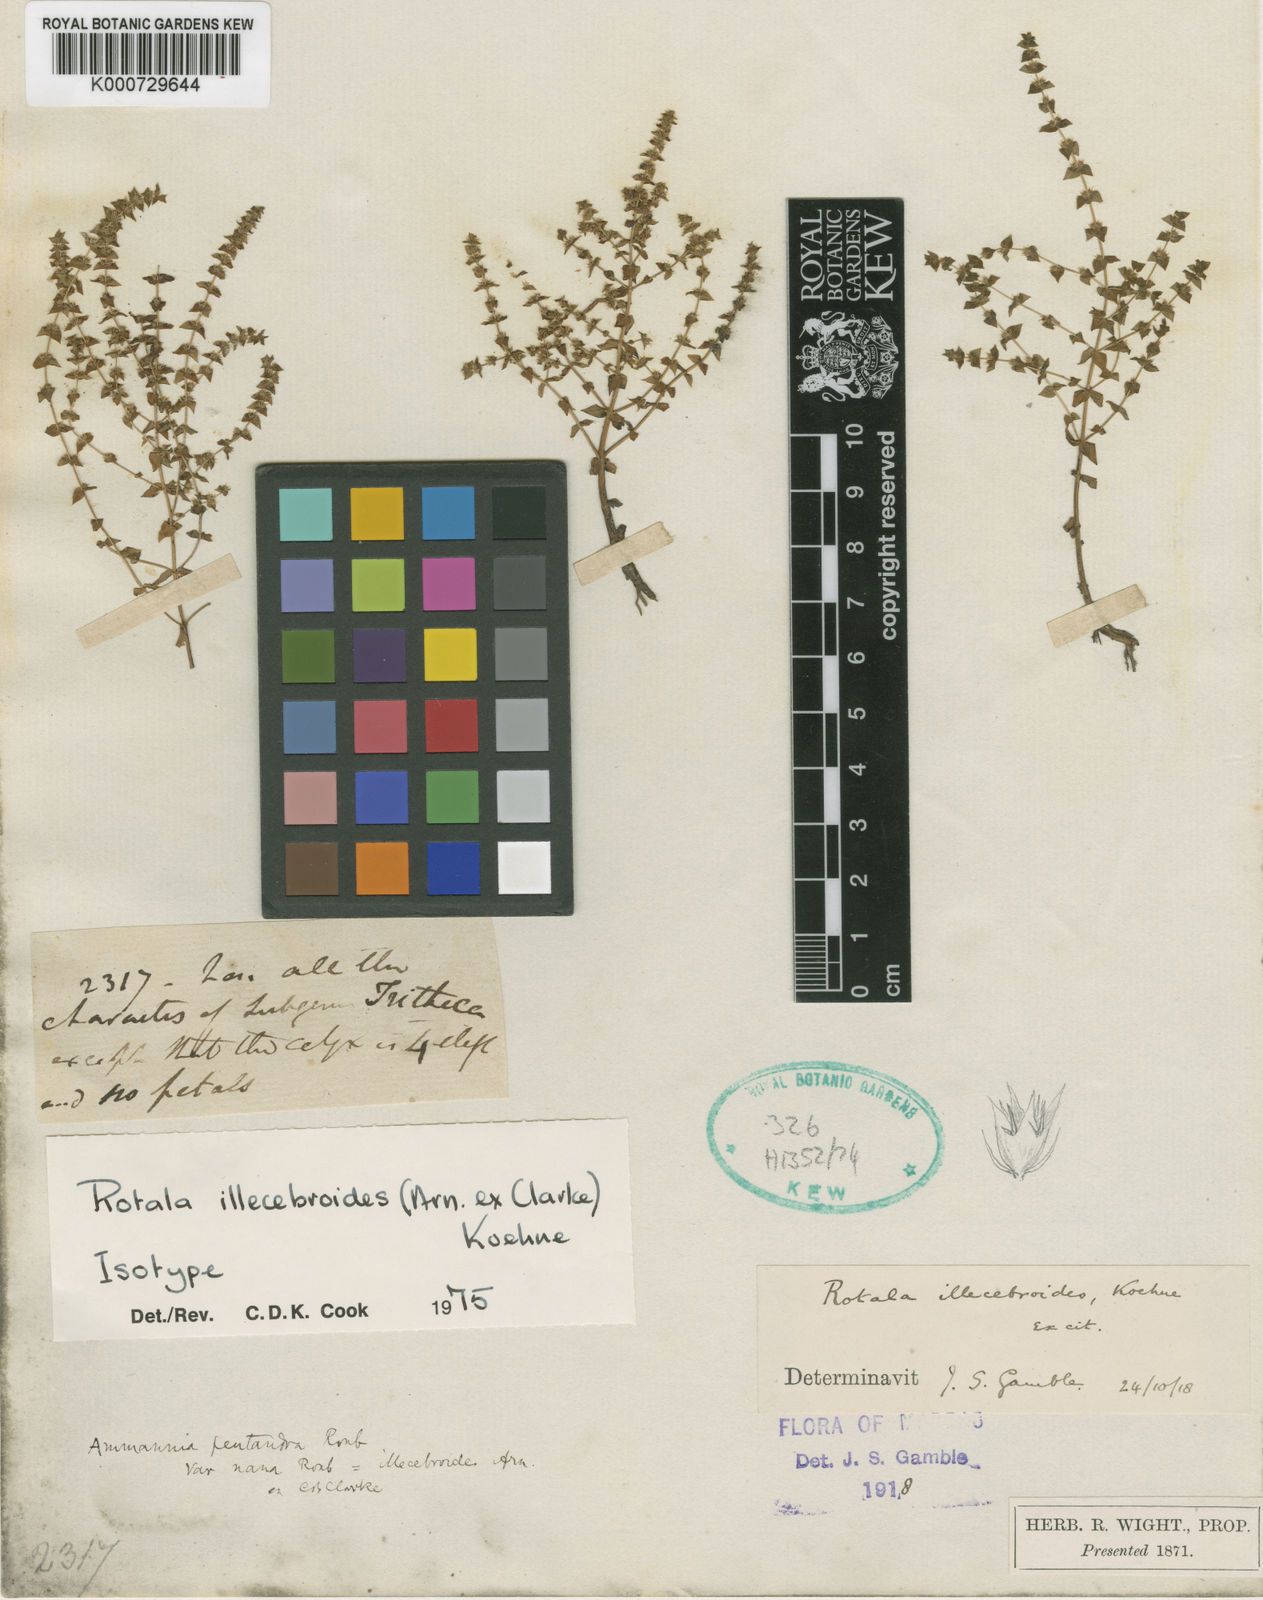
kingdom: Plantae
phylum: Tracheophyta
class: Magnoliopsida
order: Myrtales
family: Lythraceae
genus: Rotala
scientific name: Rotala illecebroides
